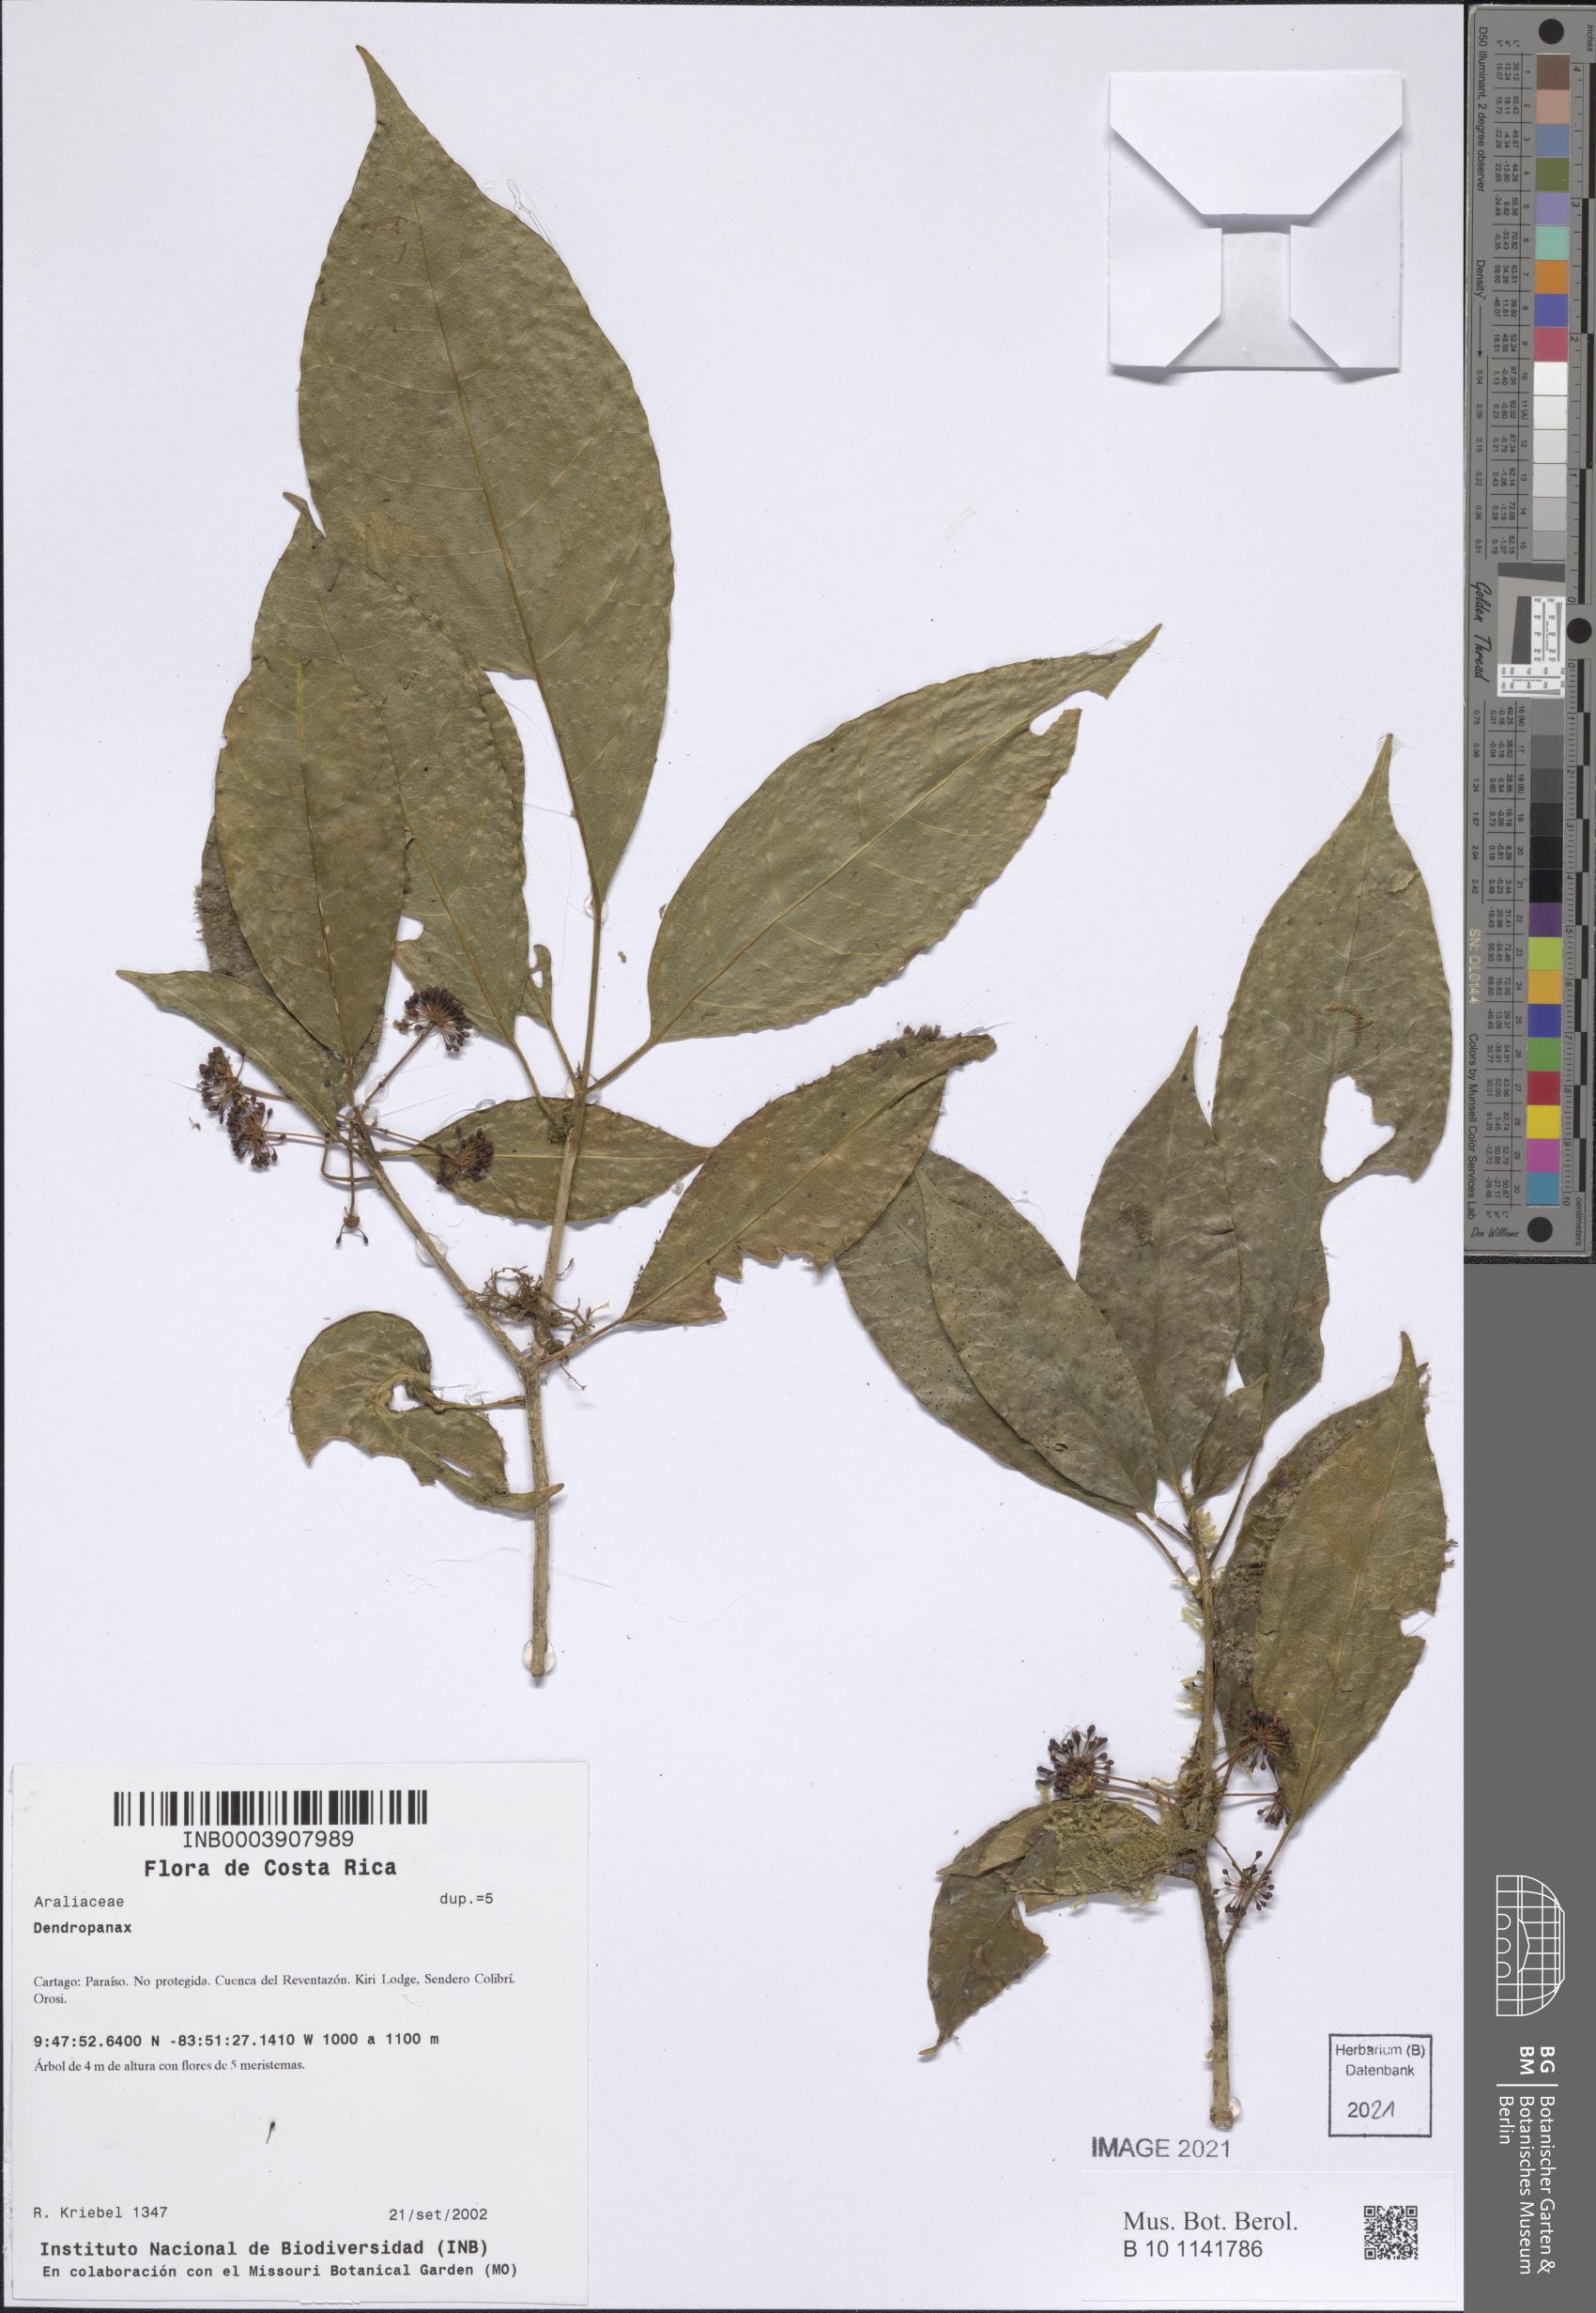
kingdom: Plantae
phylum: Tracheophyta
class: Magnoliopsida
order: Apiales
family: Araliaceae
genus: Dendropanax
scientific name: Dendropanax
